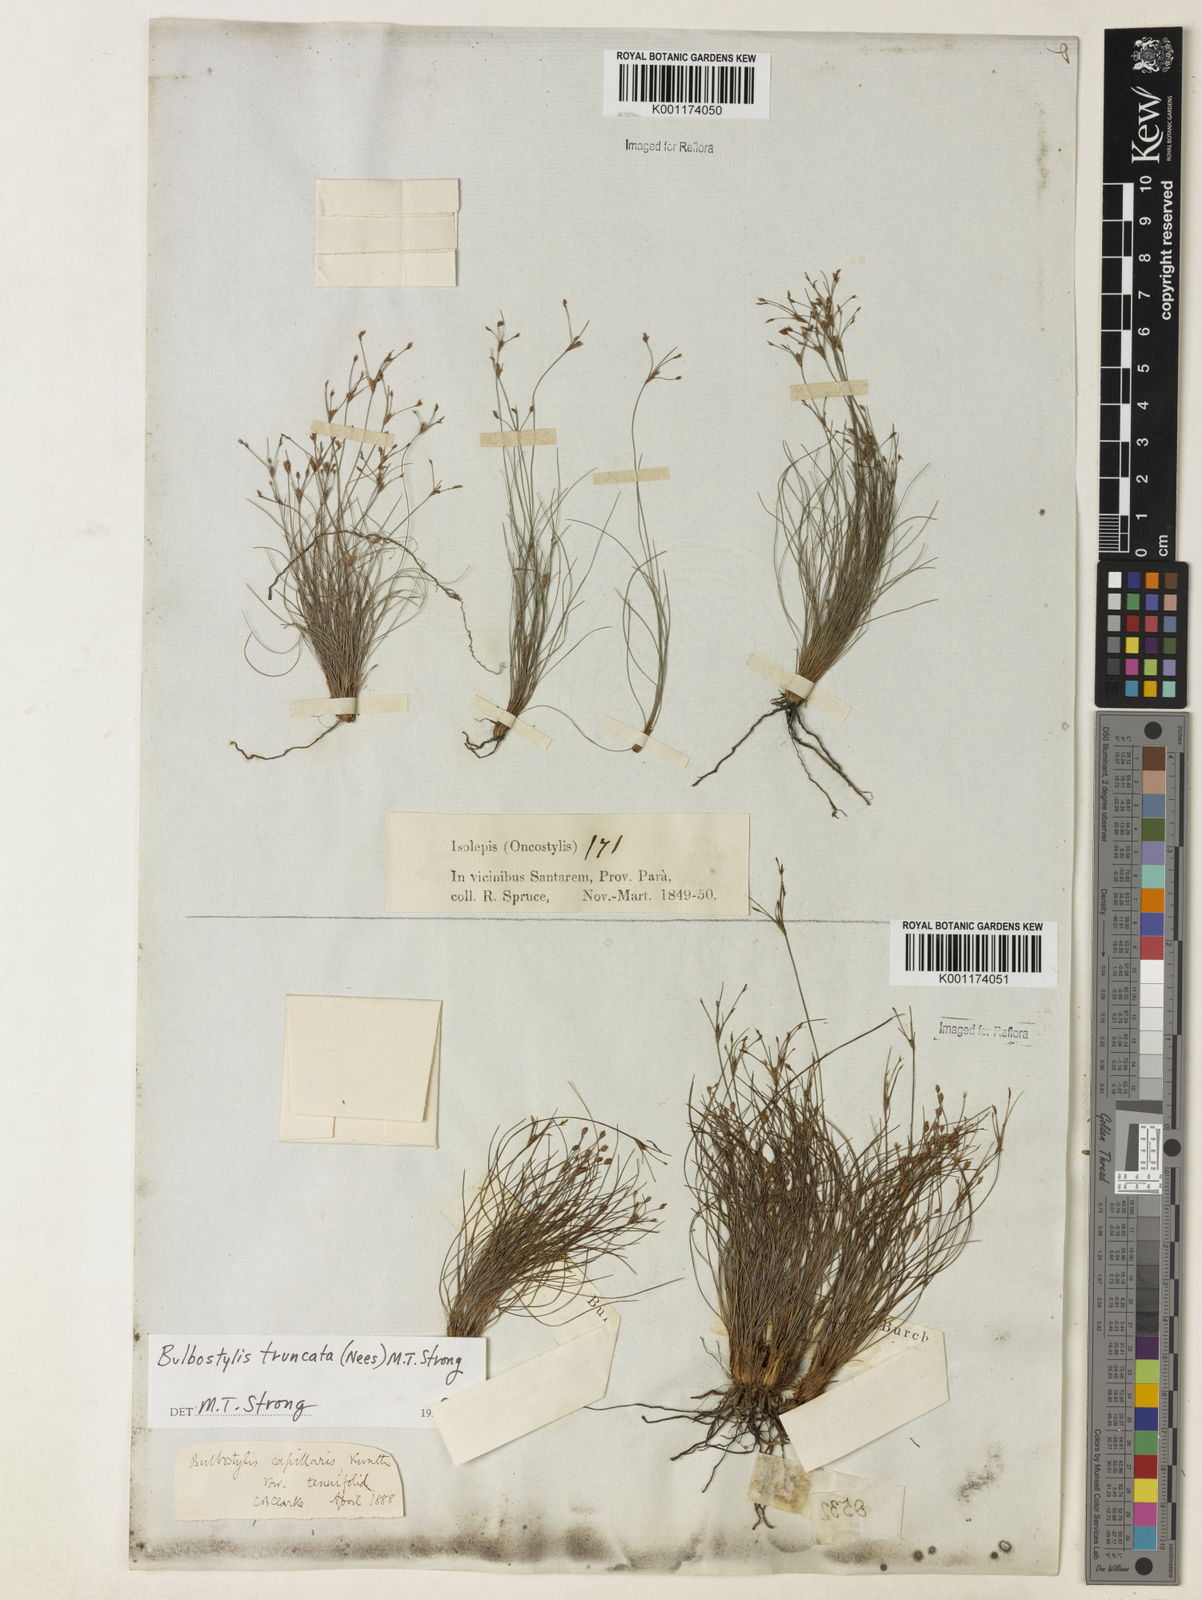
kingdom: Plantae
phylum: Tracheophyta
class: Liliopsida
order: Poales
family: Cyperaceae
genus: Bulbostylis
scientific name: Bulbostylis truncata
